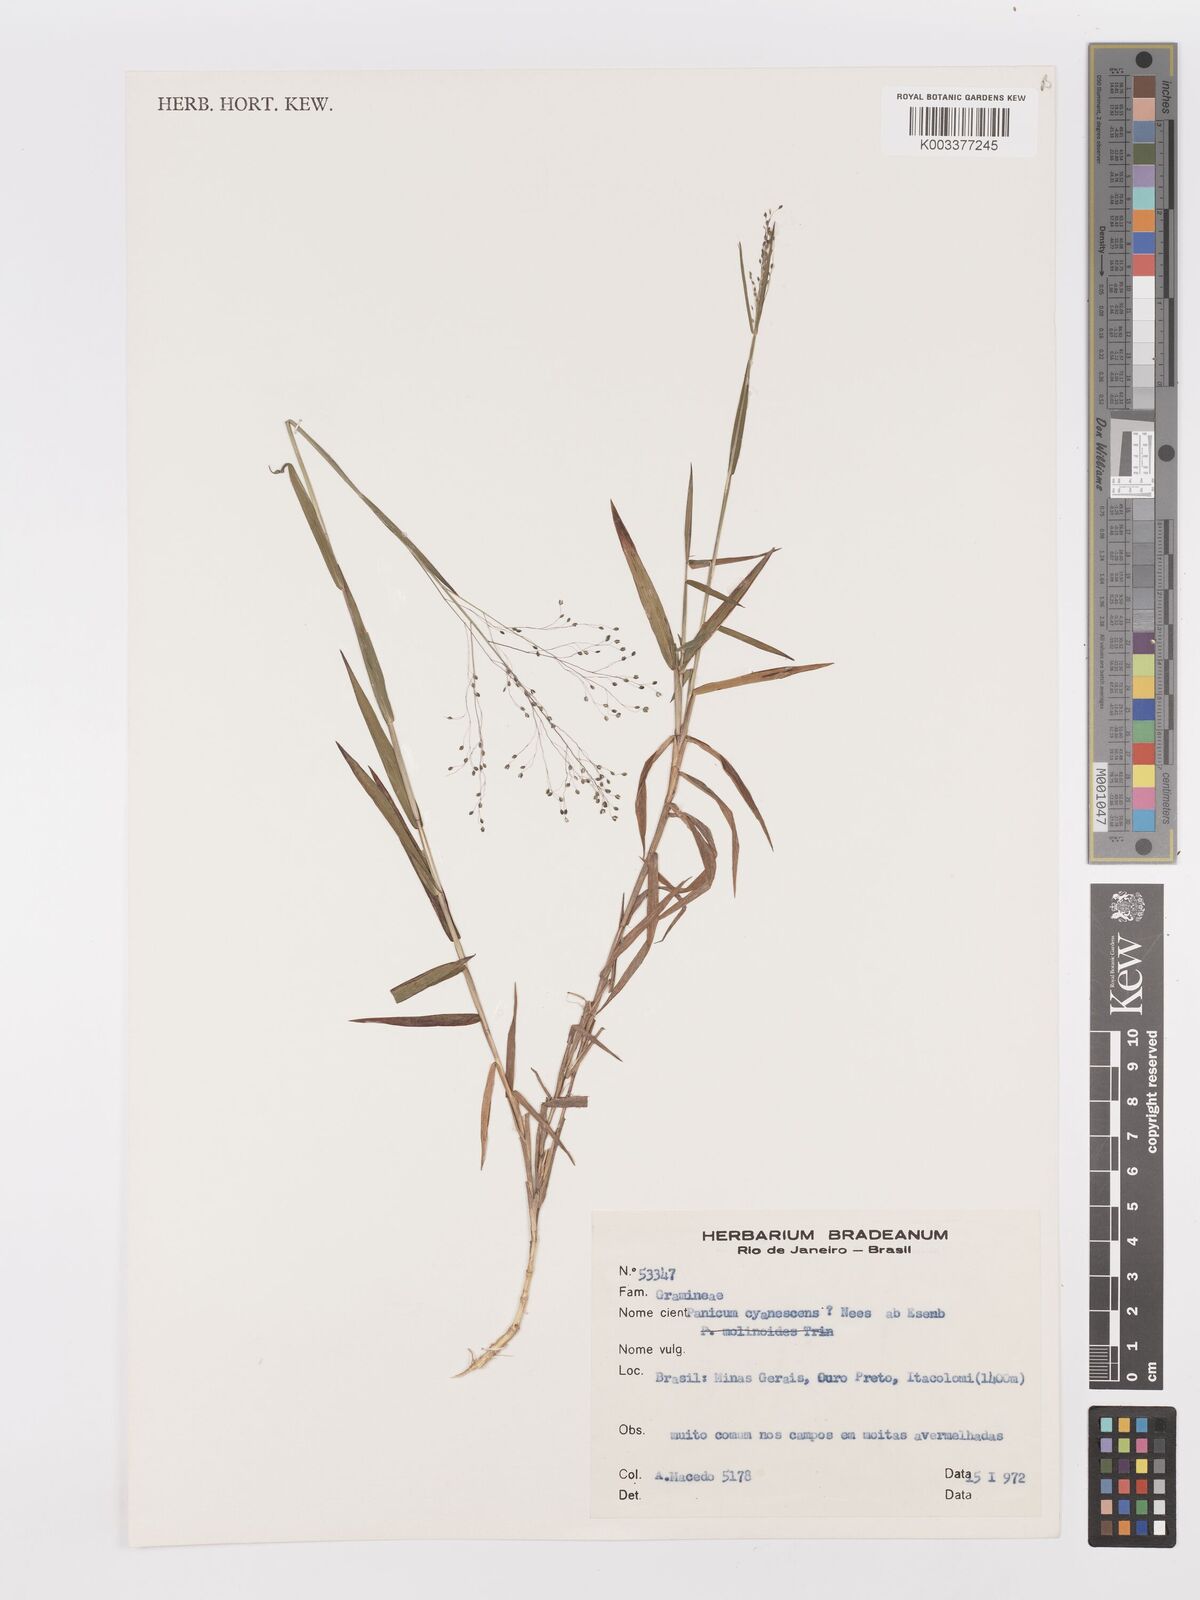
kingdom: Plantae
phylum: Tracheophyta
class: Liliopsida
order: Poales
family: Poaceae
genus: Trichanthecium
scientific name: Trichanthecium pseudisachne
